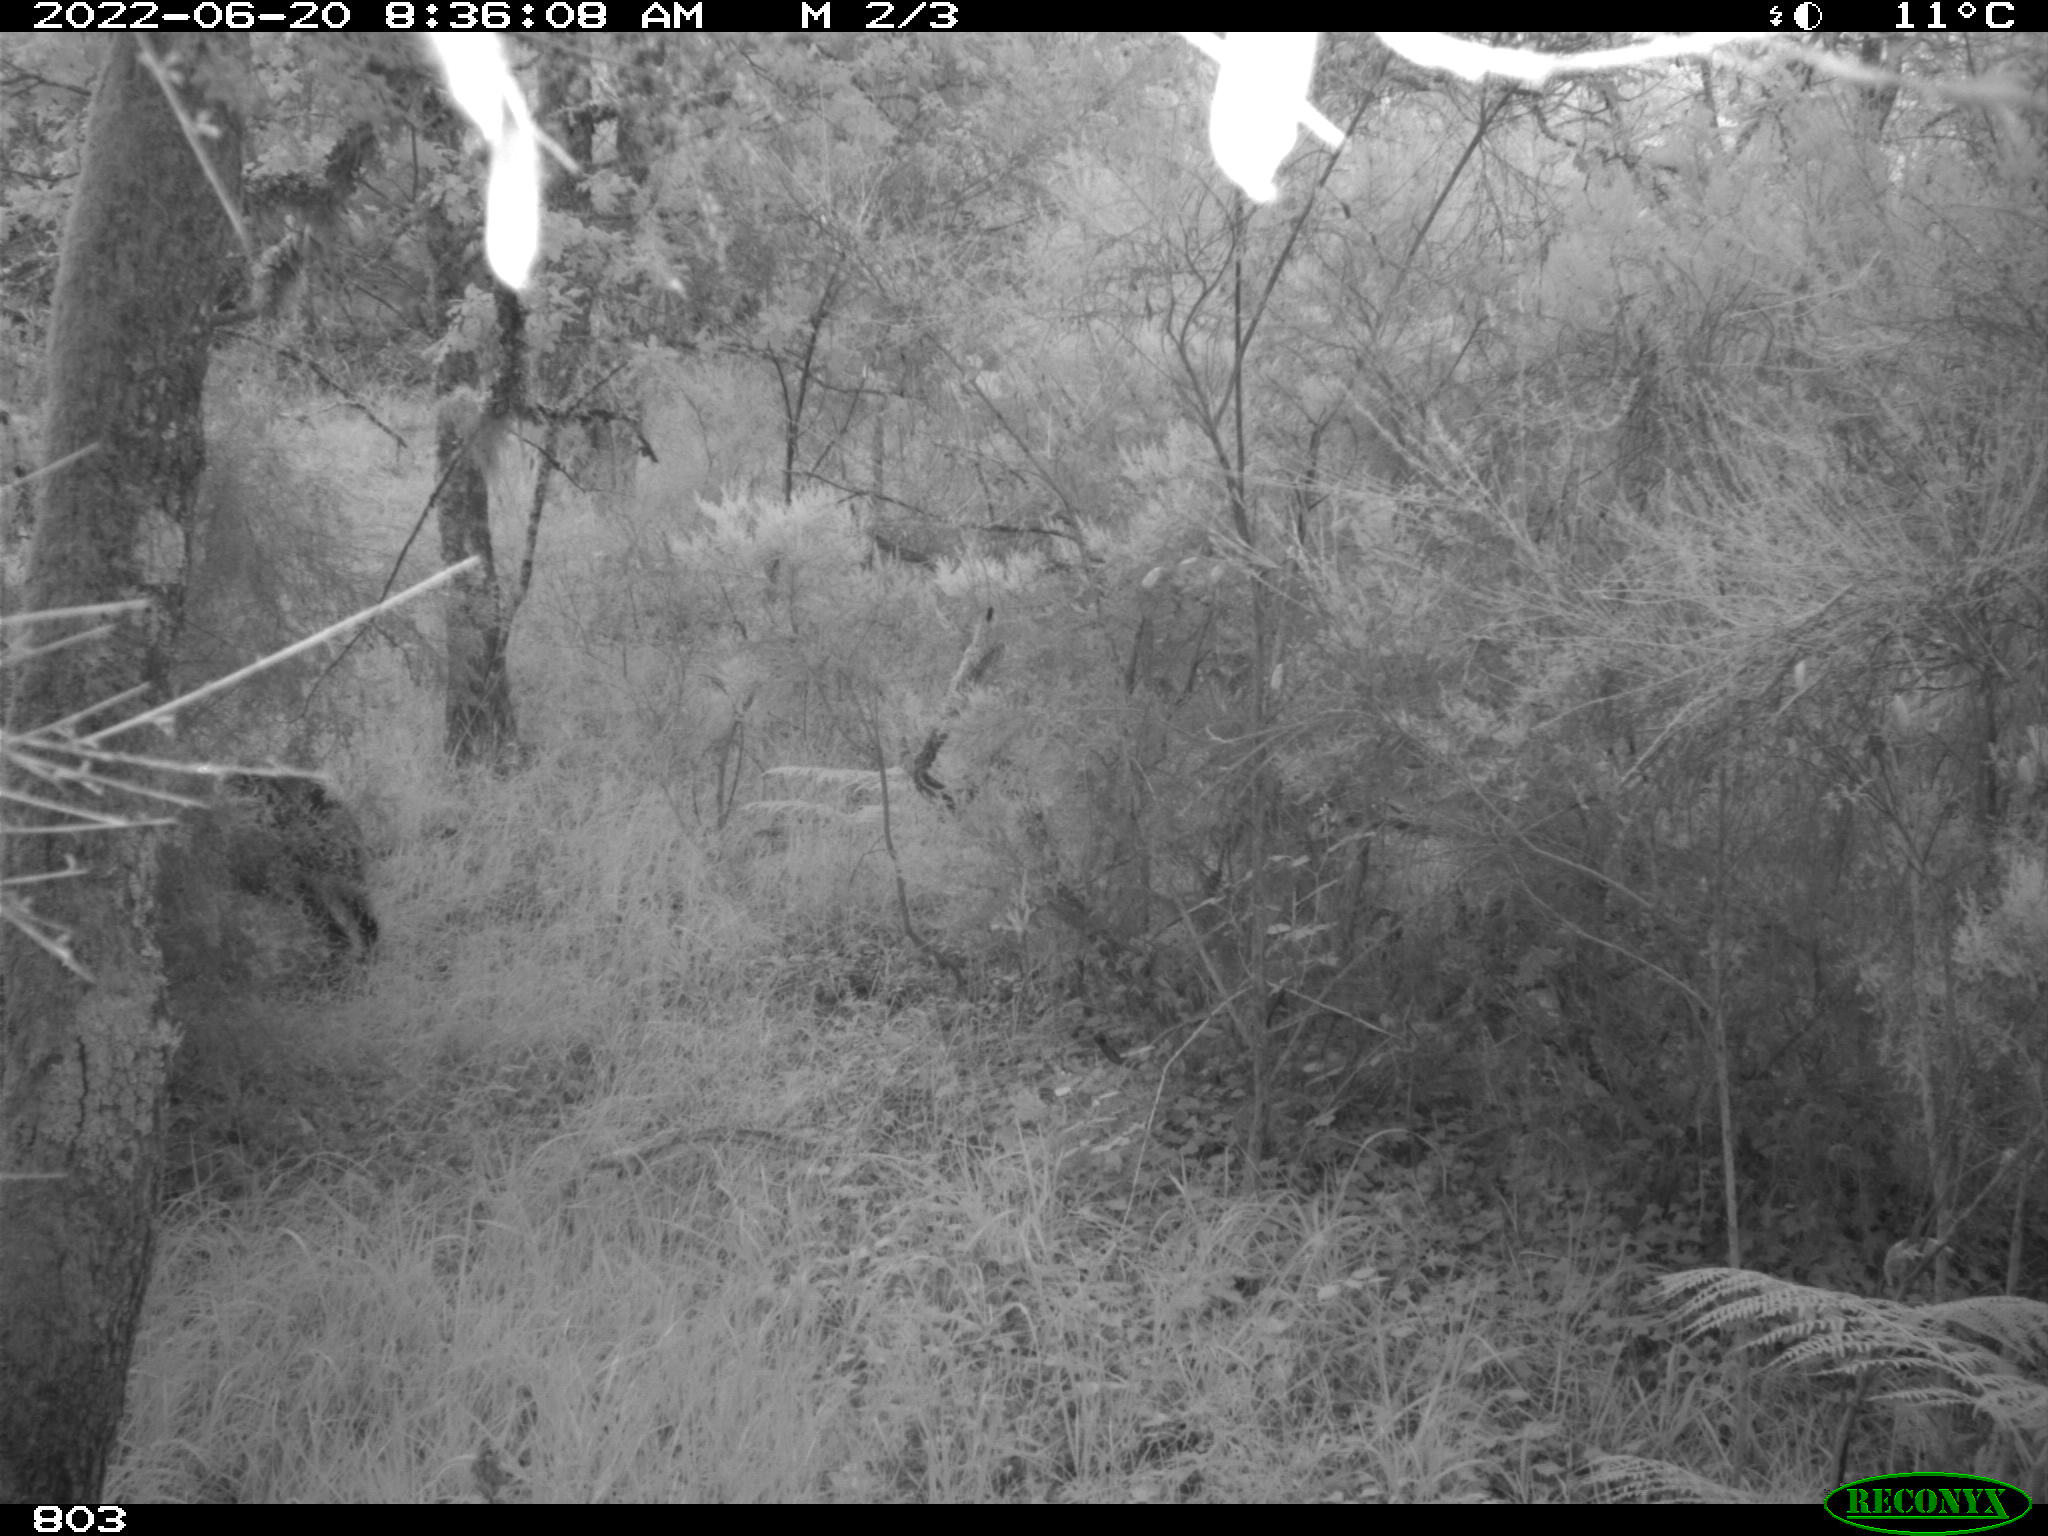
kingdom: Animalia
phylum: Chordata
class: Mammalia
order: Artiodactyla
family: Suidae
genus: Sus
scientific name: Sus scrofa
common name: Wild boar
